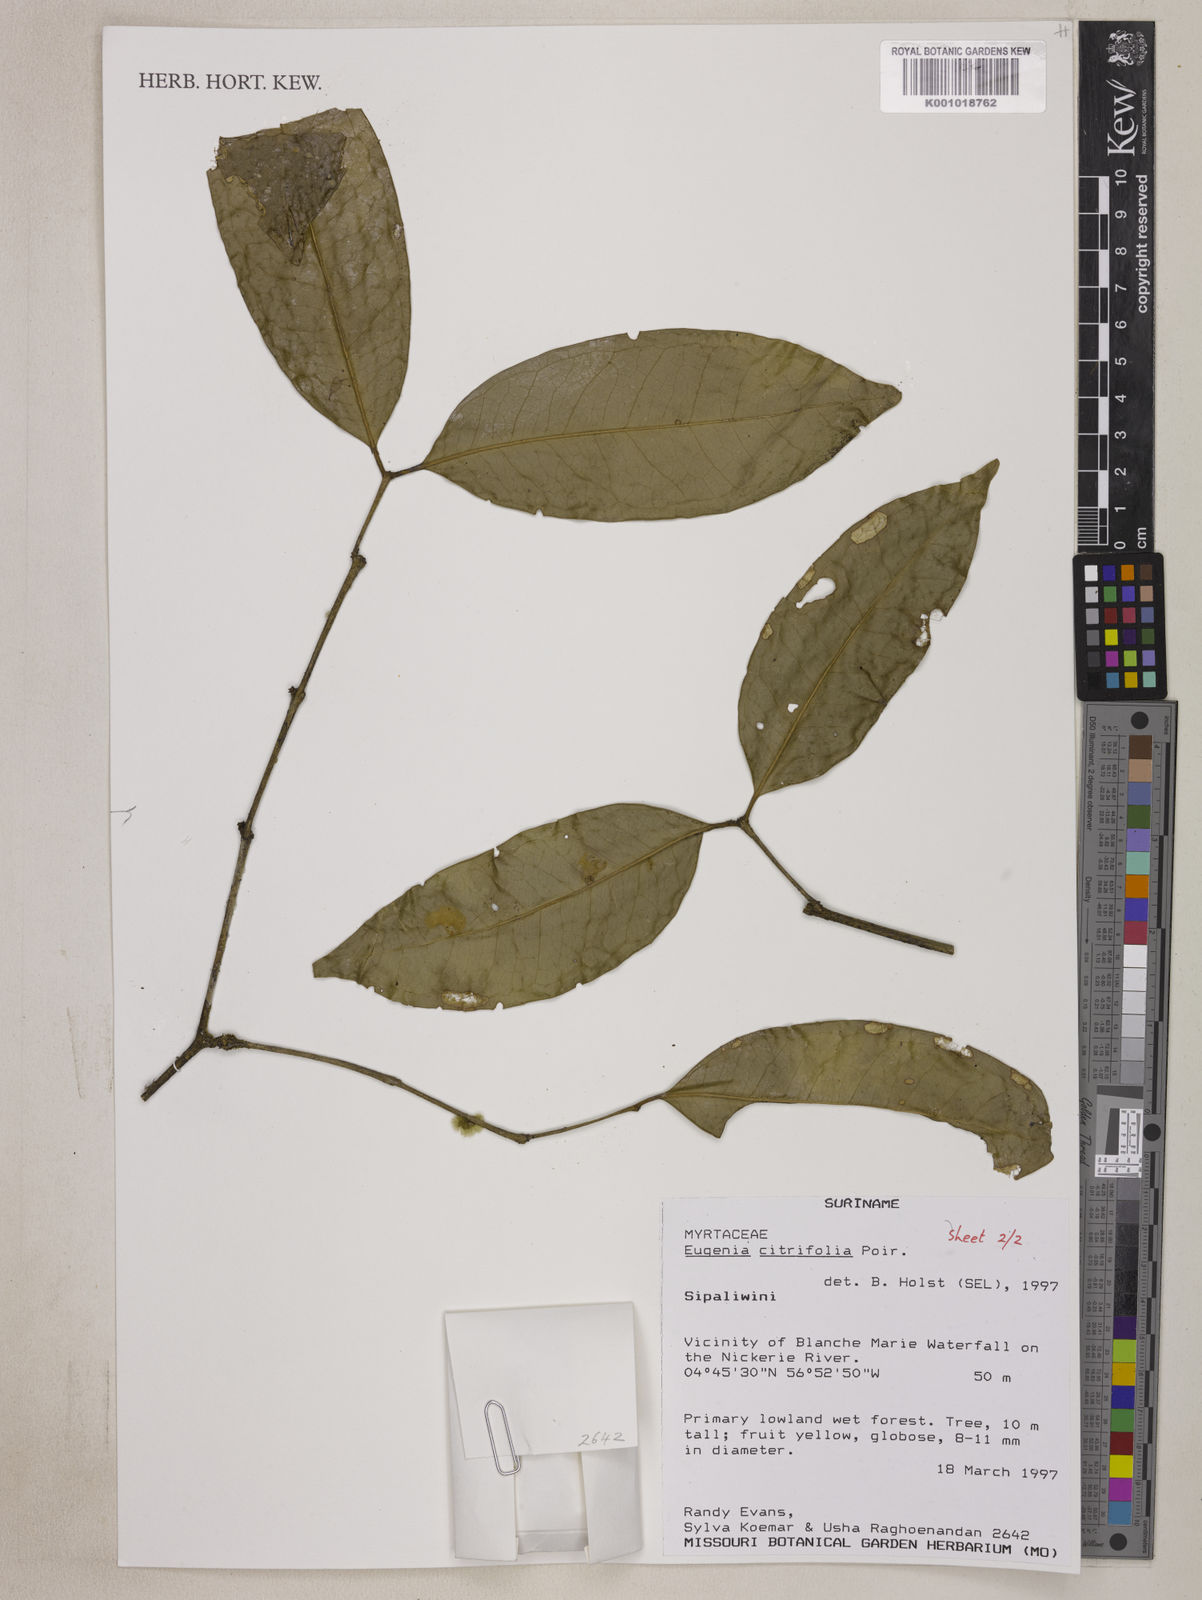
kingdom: Plantae
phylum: Tracheophyta
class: Magnoliopsida
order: Myrtales
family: Myrtaceae
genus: Eugenia
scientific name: Eugenia citrifolia
